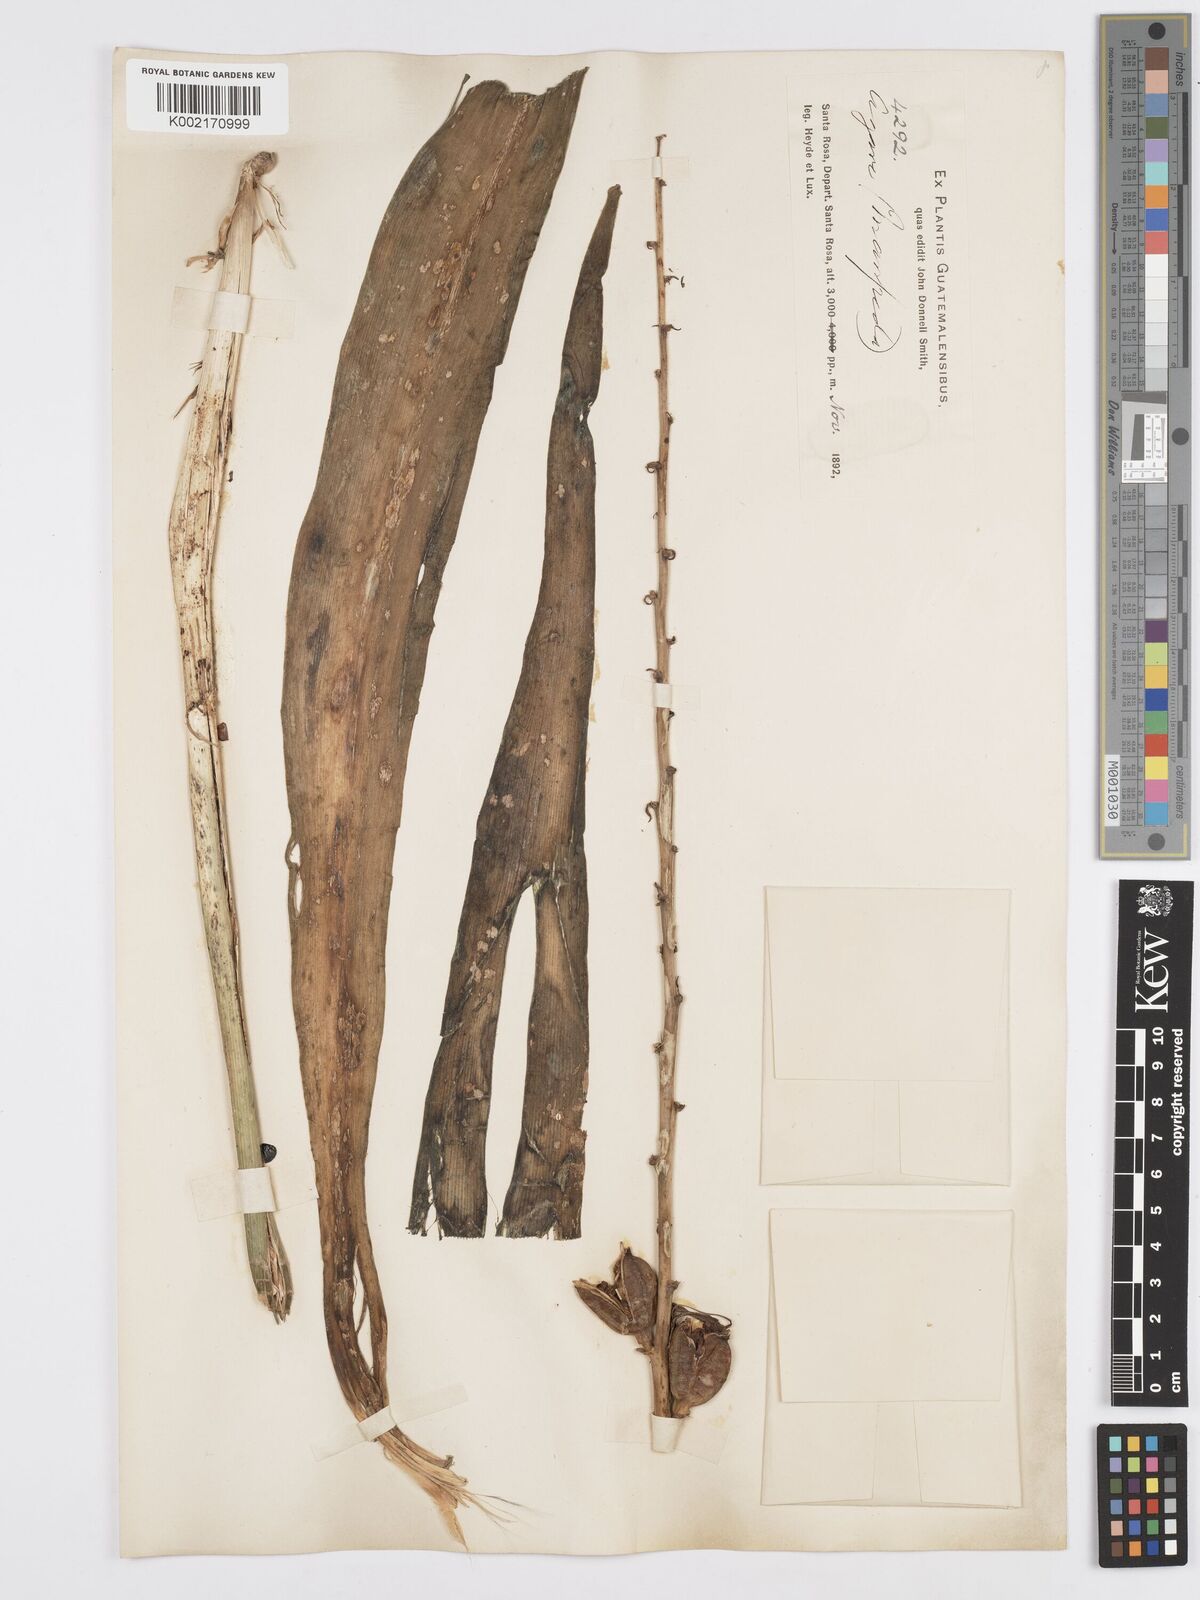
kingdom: Plantae
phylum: Tracheophyta
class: Liliopsida
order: Asparagales
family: Asparagaceae
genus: Agave
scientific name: Agave Manfreda spec
